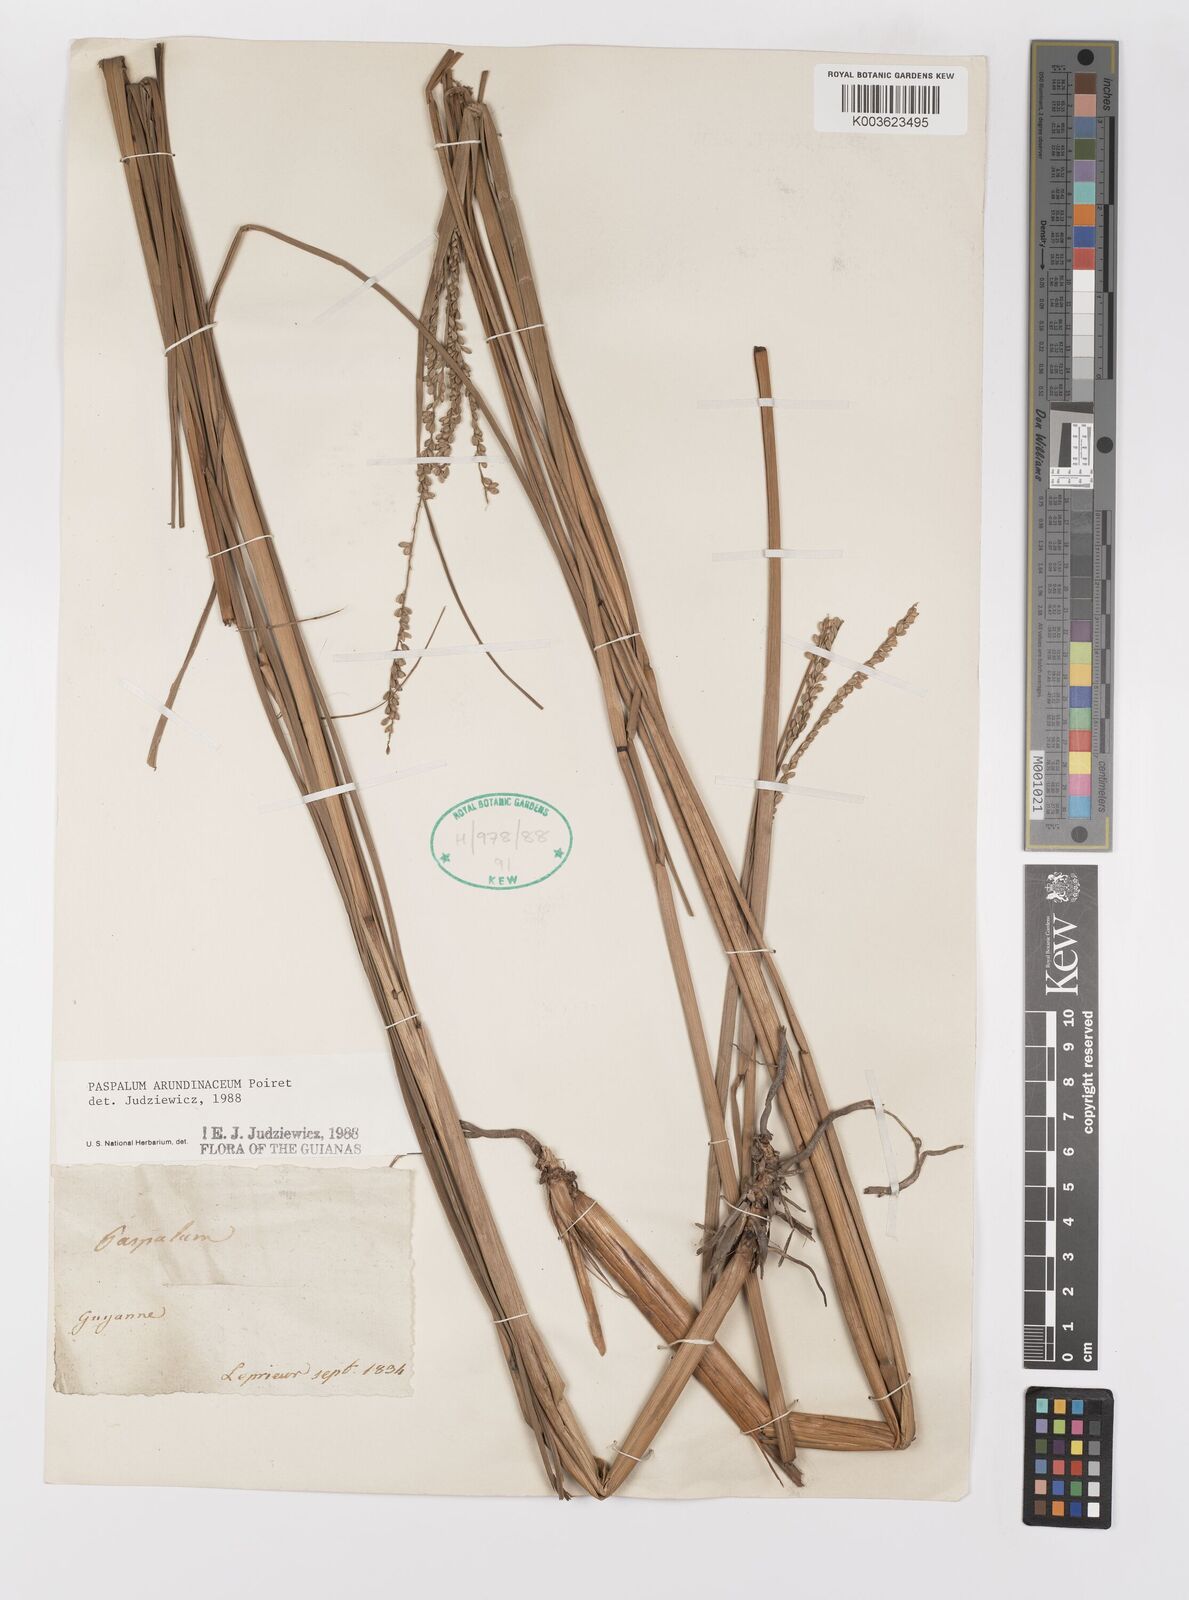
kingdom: Plantae
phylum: Tracheophyta
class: Liliopsida
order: Poales
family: Poaceae
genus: Paspalum
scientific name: Paspalum arundinaceum
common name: Thick ditch crowngrass
